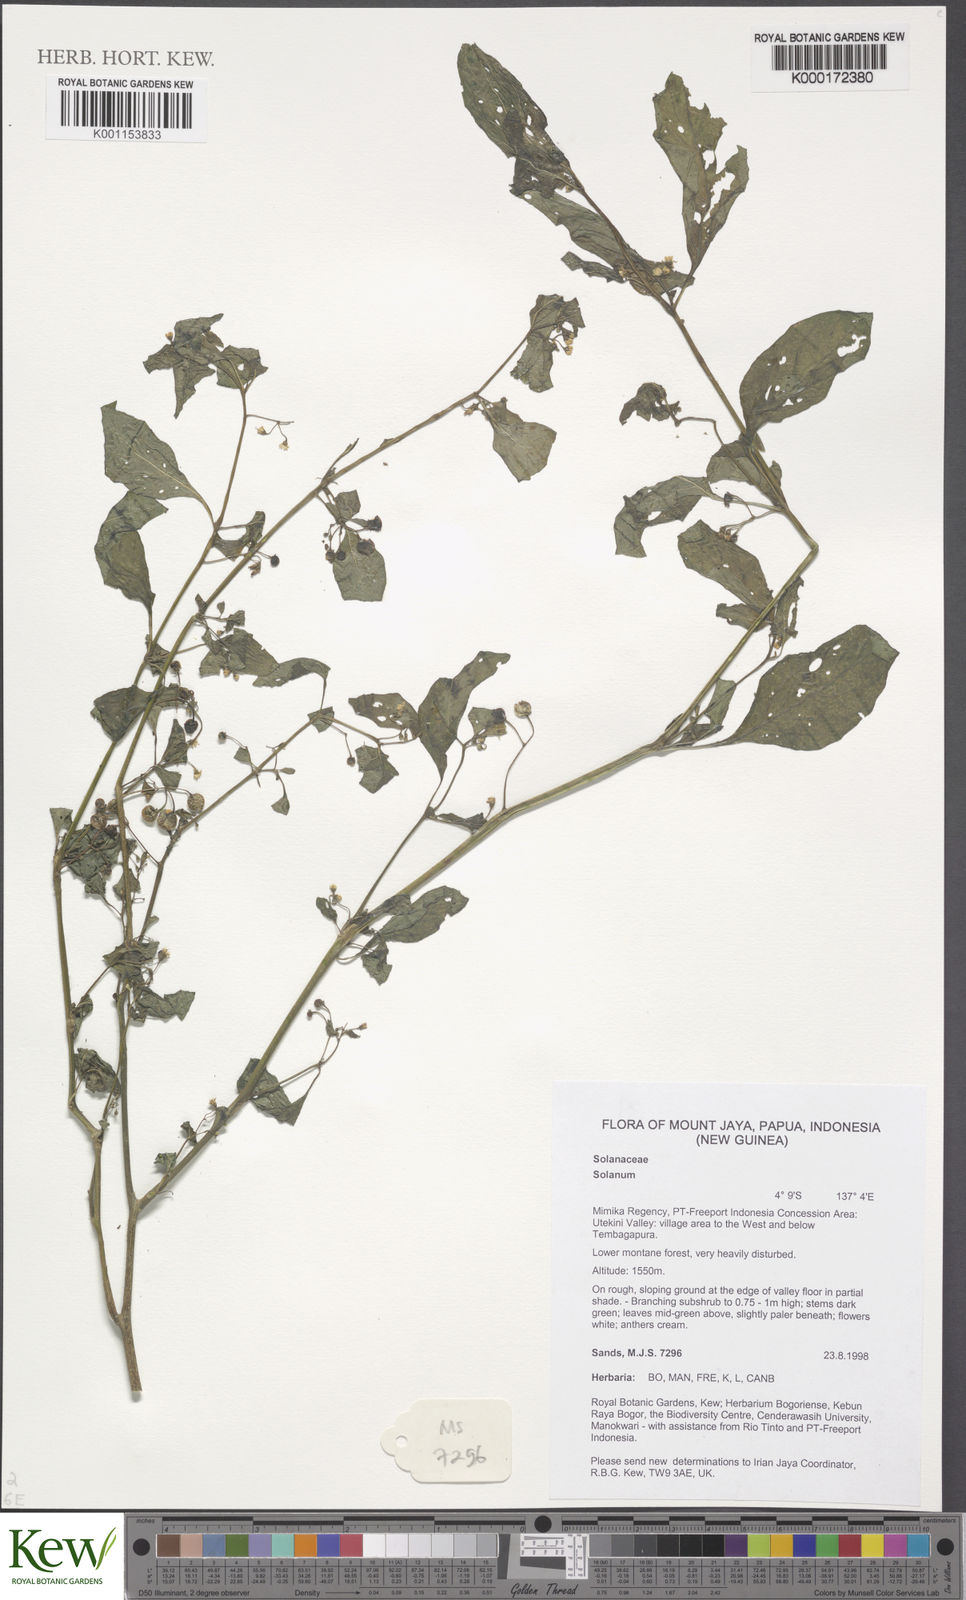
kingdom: Plantae
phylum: Tracheophyta
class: Magnoliopsida
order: Solanales
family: Solanaceae
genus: Solanum
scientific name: Solanum
